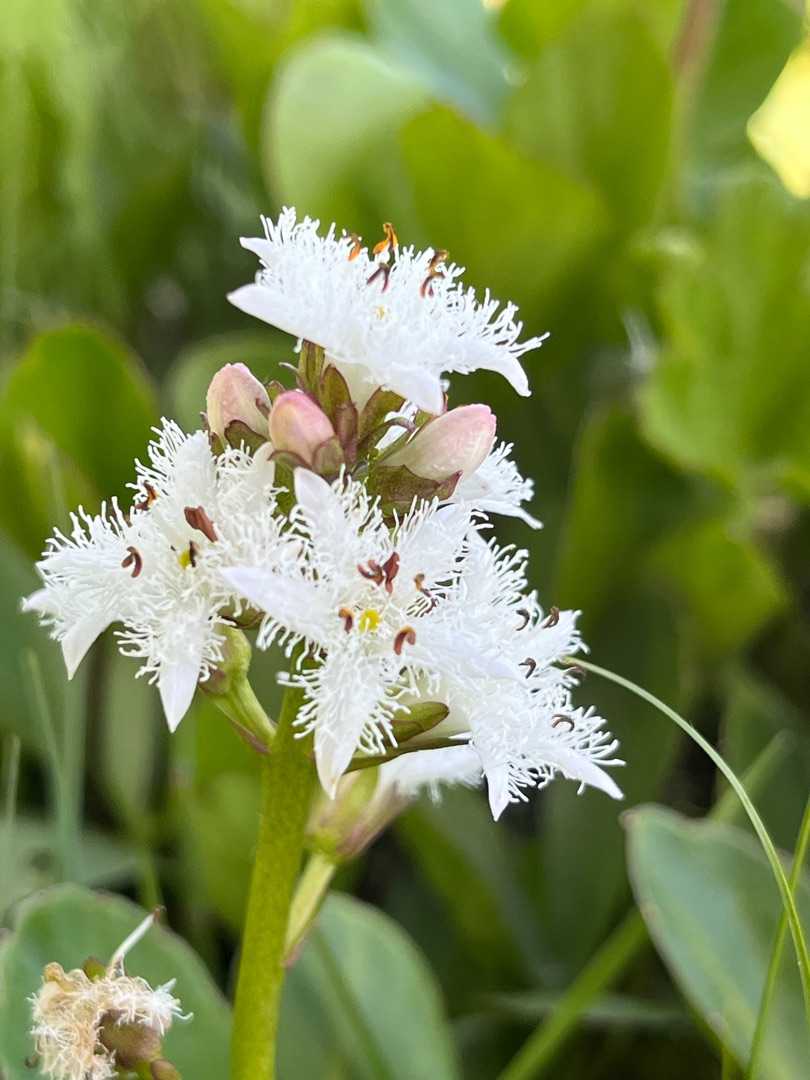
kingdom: Plantae
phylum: Tracheophyta
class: Magnoliopsida
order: Asterales
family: Menyanthaceae
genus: Menyanthes
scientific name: Menyanthes trifoliata
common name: Bukkeblad
